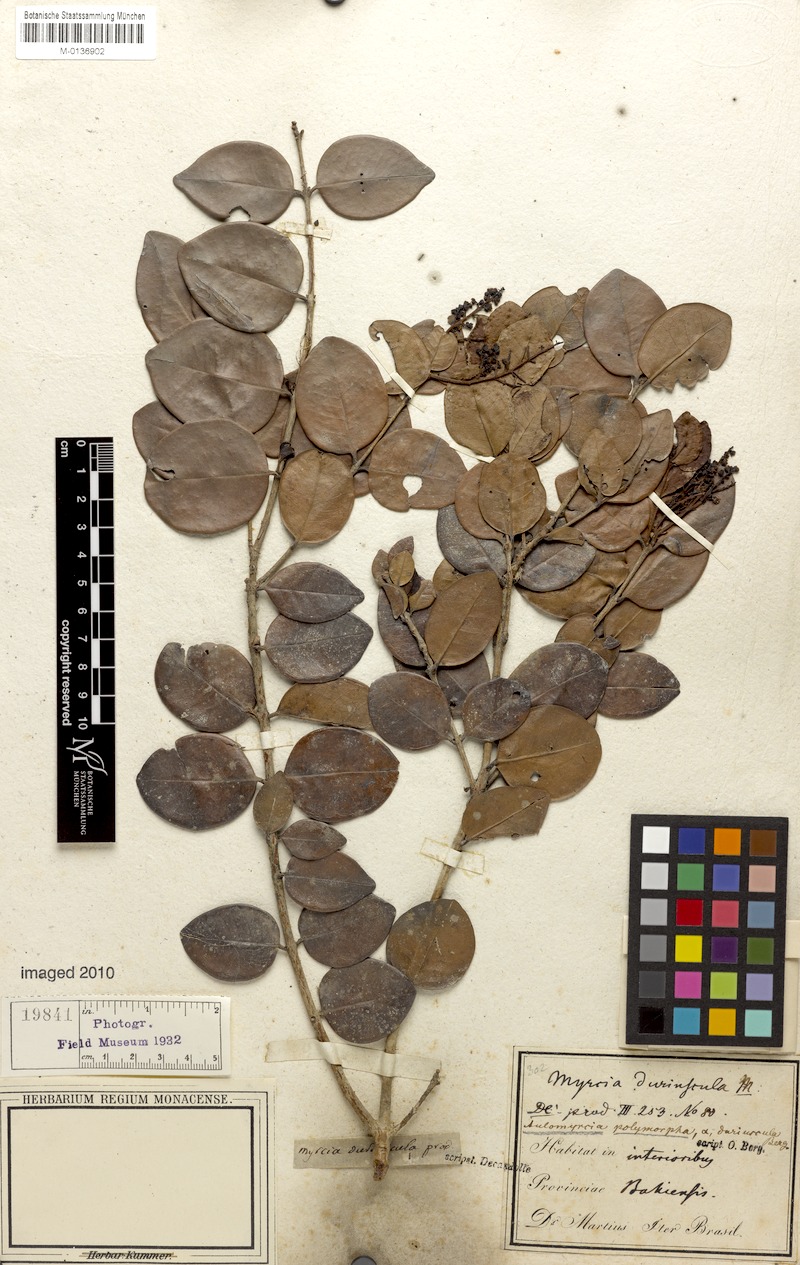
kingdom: Plantae
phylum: Tracheophyta
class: Magnoliopsida
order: Myrtales
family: Myrtaceae
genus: Myrcia
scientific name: Myrcia decorticans
